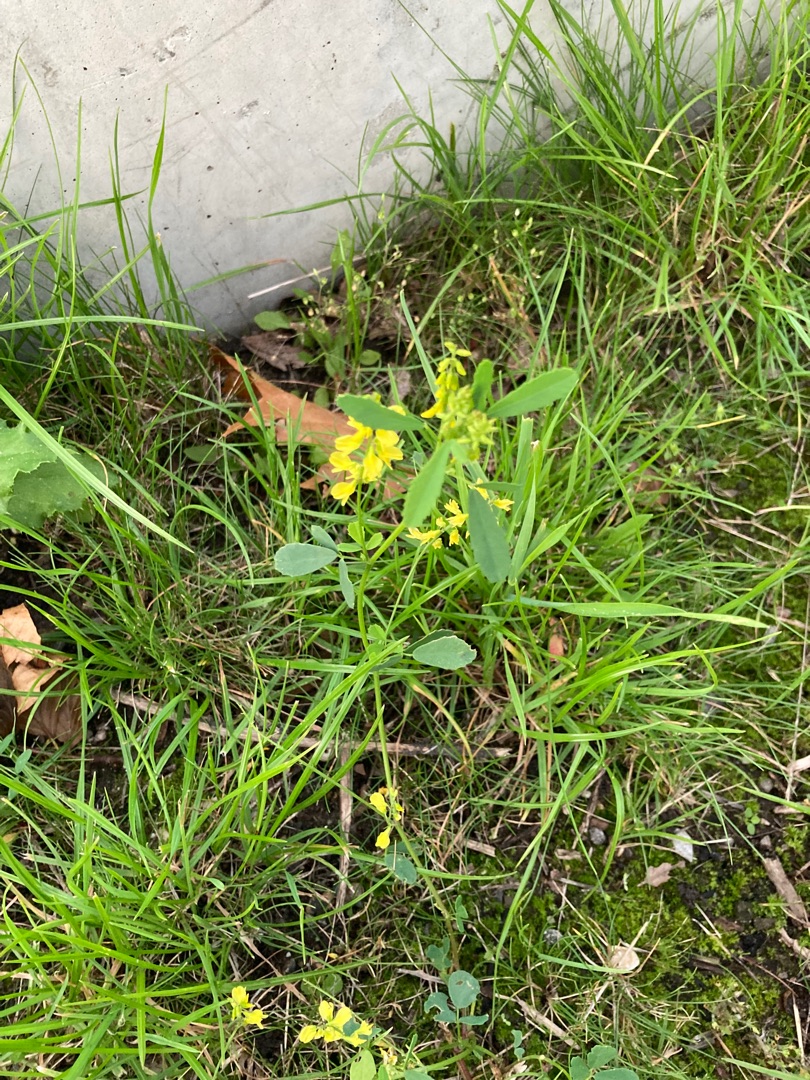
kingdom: Plantae
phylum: Tracheophyta
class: Magnoliopsida
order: Fabales
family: Fabaceae
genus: Melilotus
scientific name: Melilotus officinalis
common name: Mark-stenkløver
